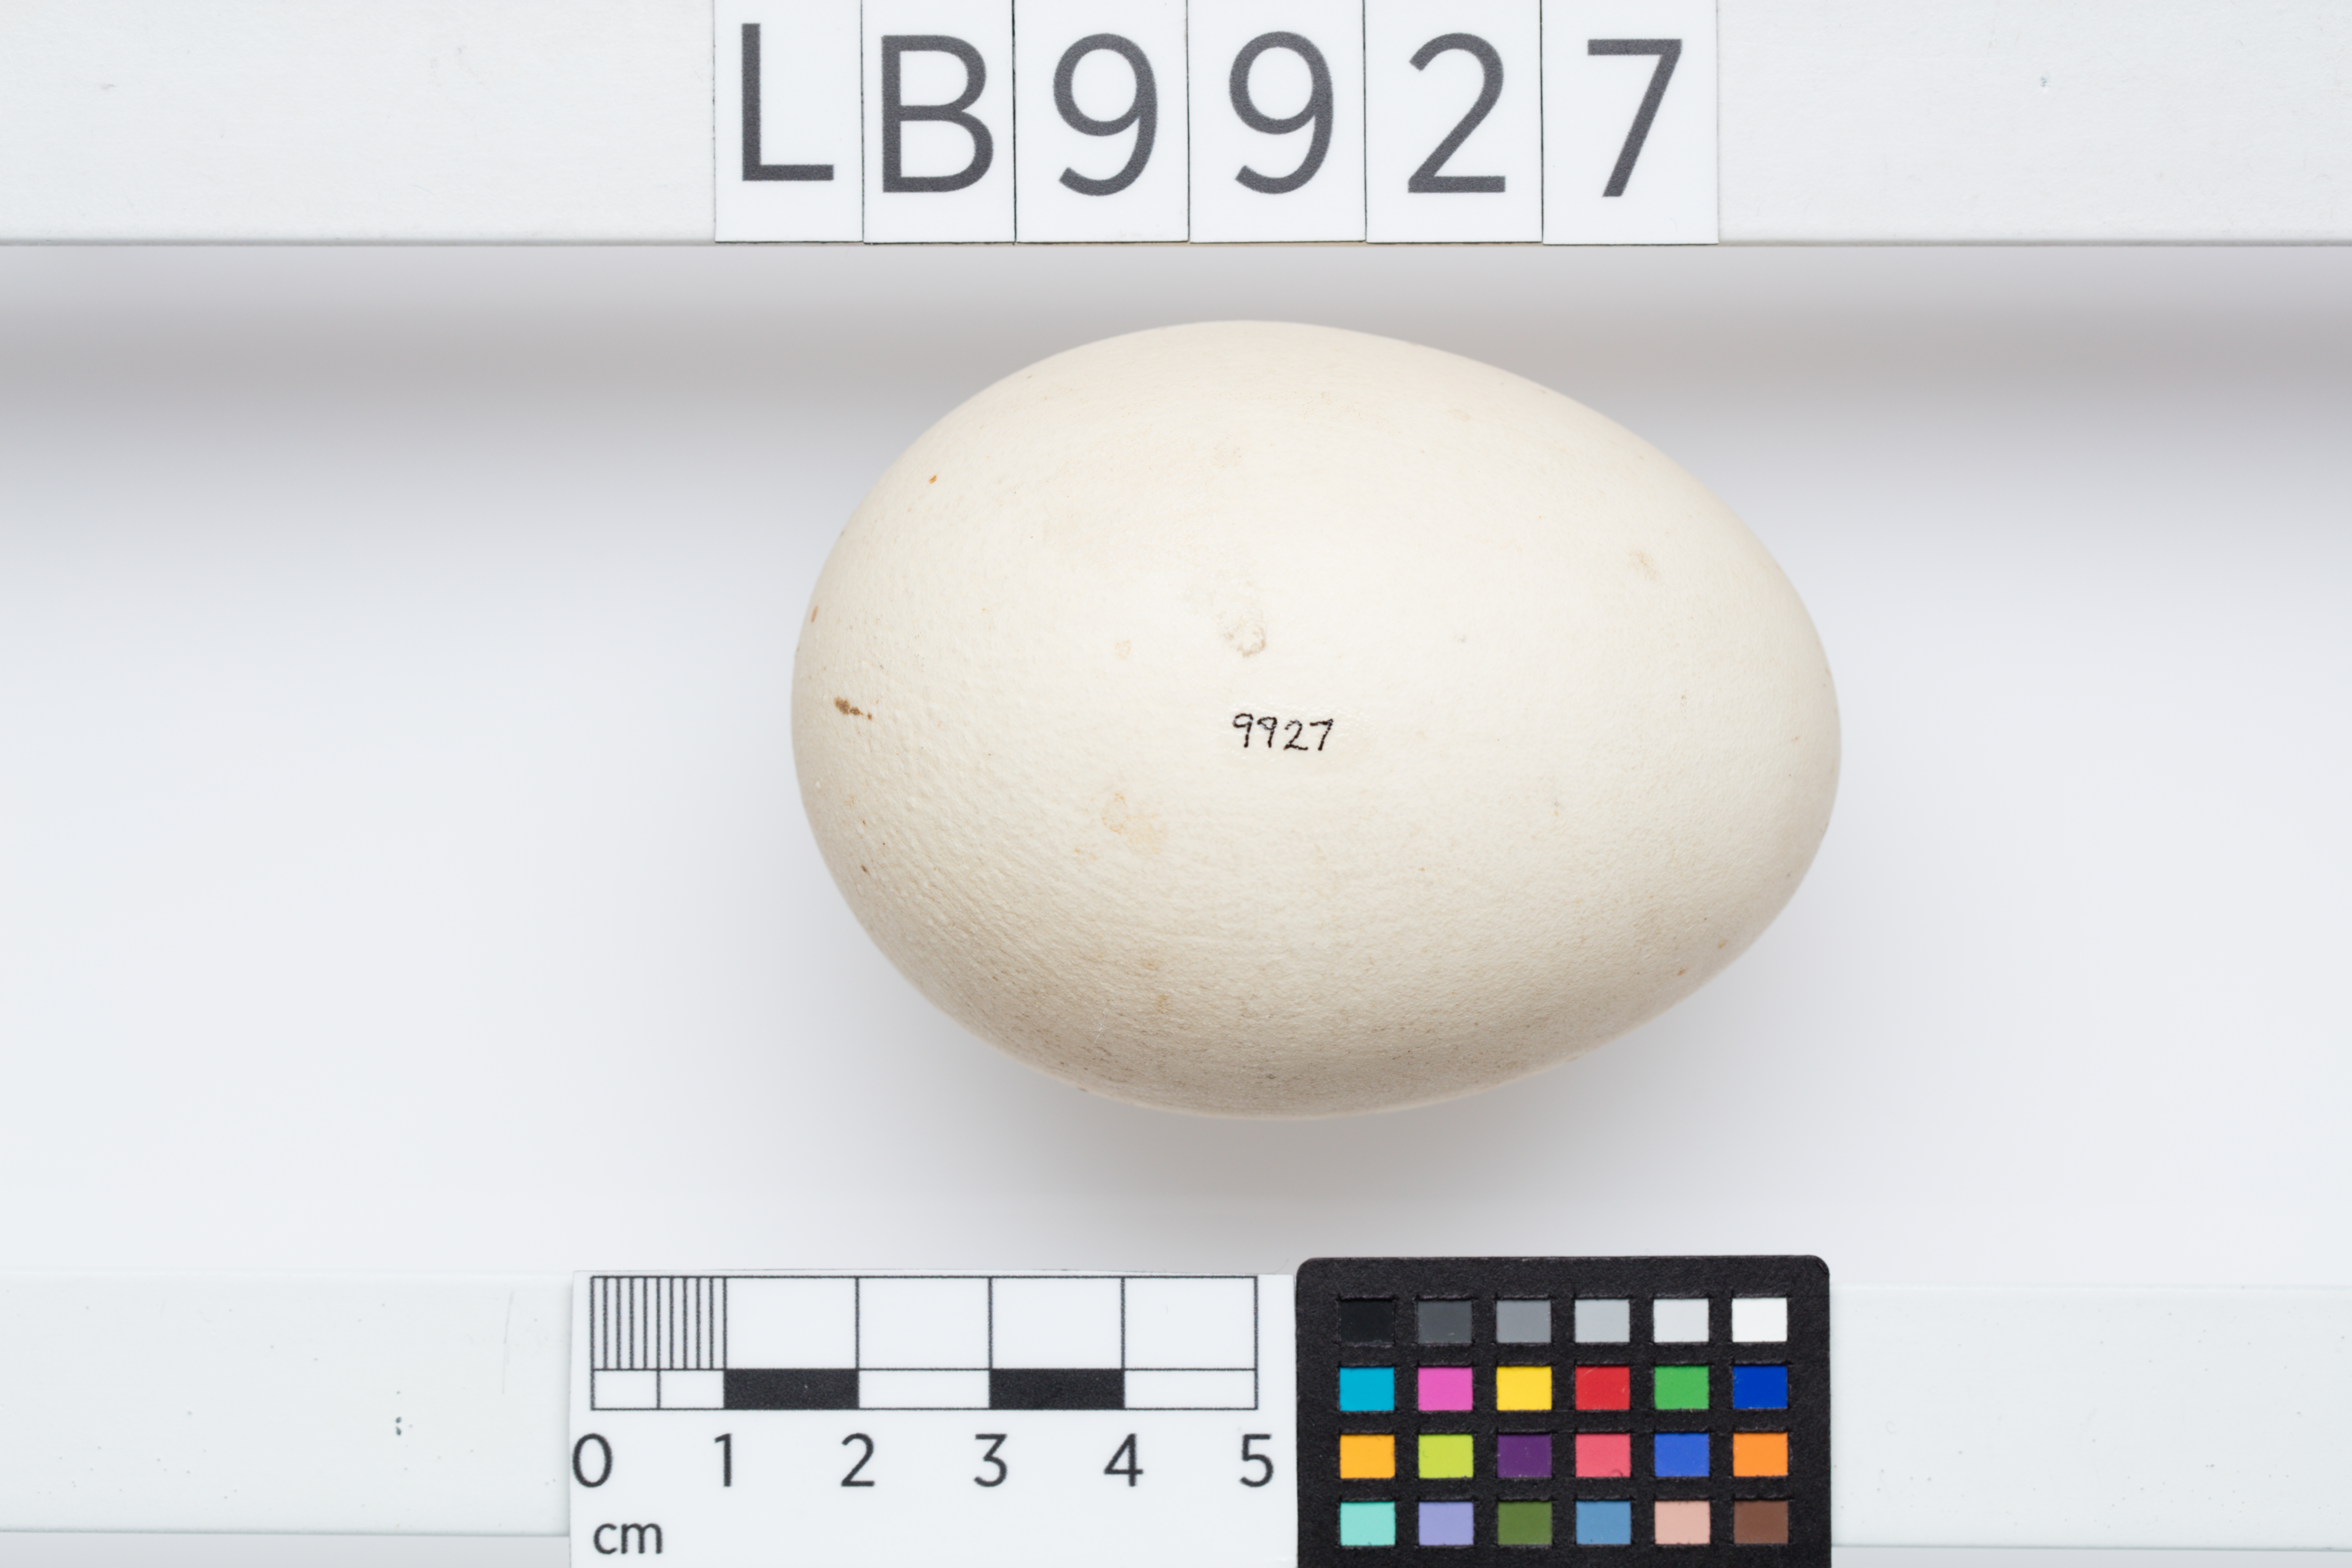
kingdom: Animalia
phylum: Chordata
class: Aves
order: Ciconiiformes
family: Ciconiidae
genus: Ephippiorhynchus
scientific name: Ephippiorhynchus asiaticus
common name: Black-necked stork
